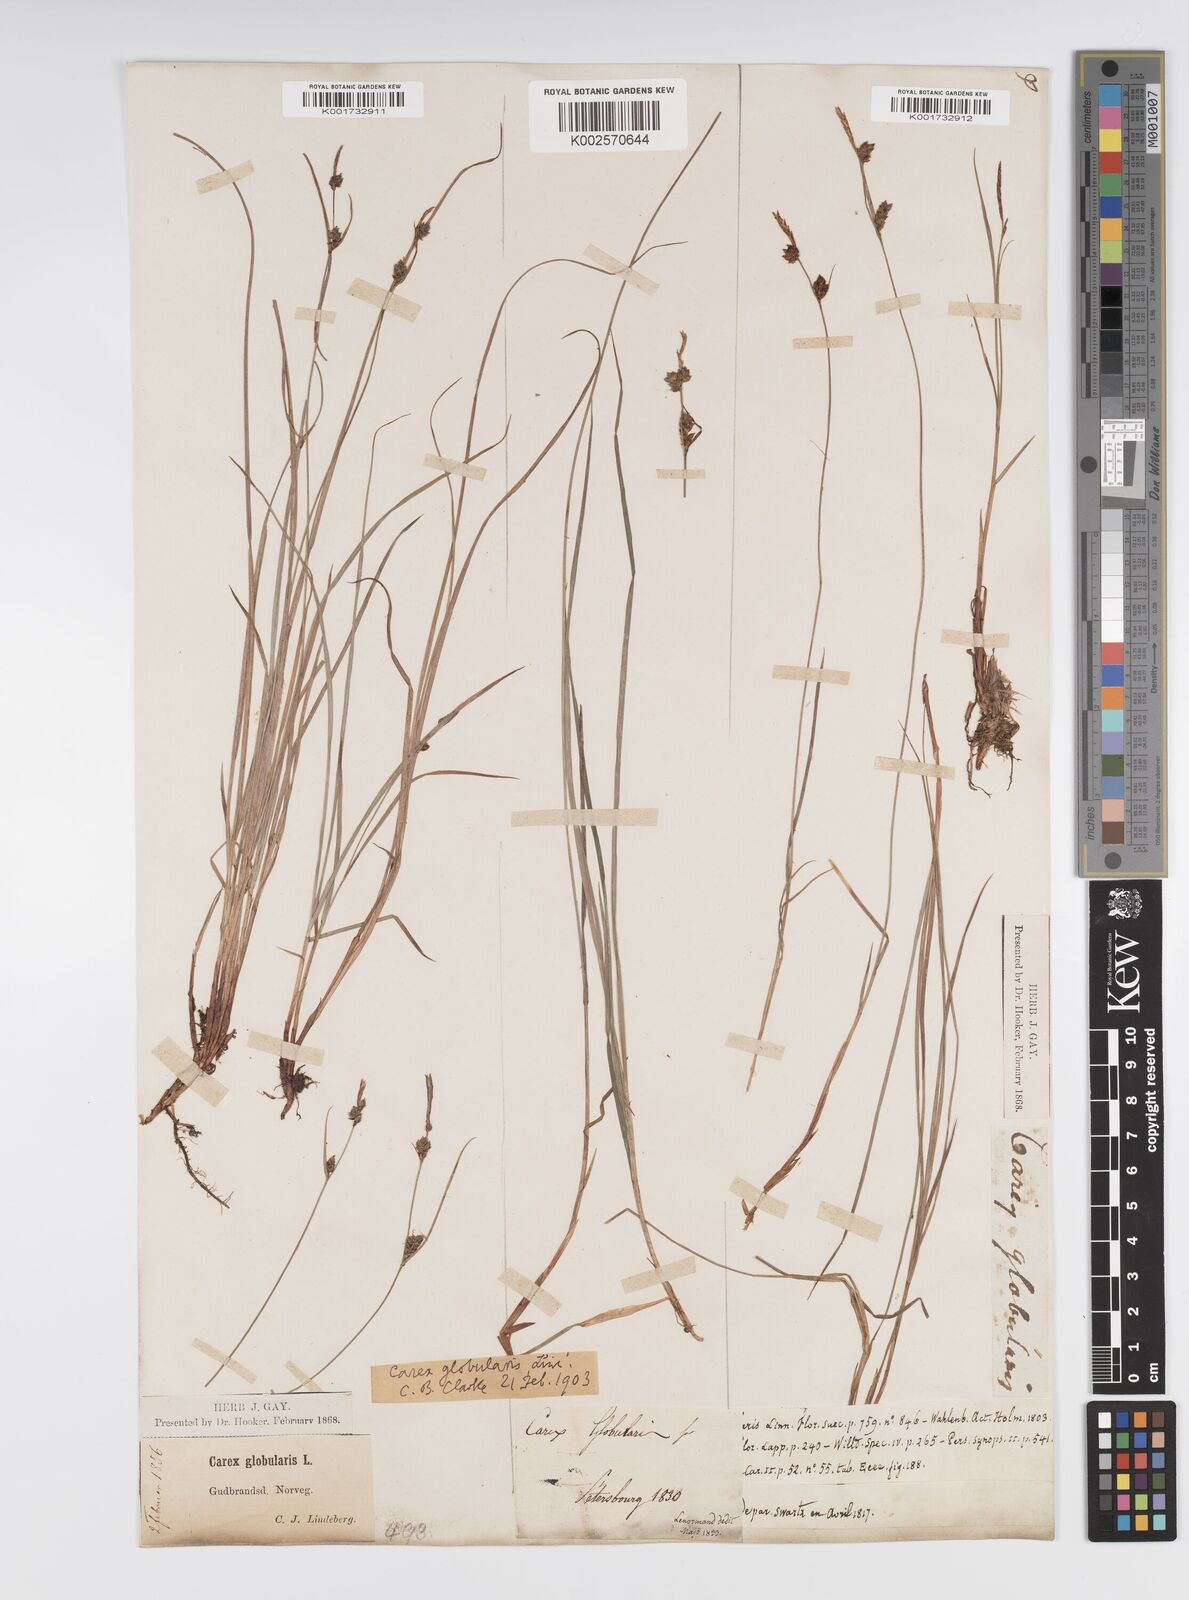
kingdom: Plantae
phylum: Tracheophyta
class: Liliopsida
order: Poales
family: Cyperaceae
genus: Carex
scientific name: Carex globularis
